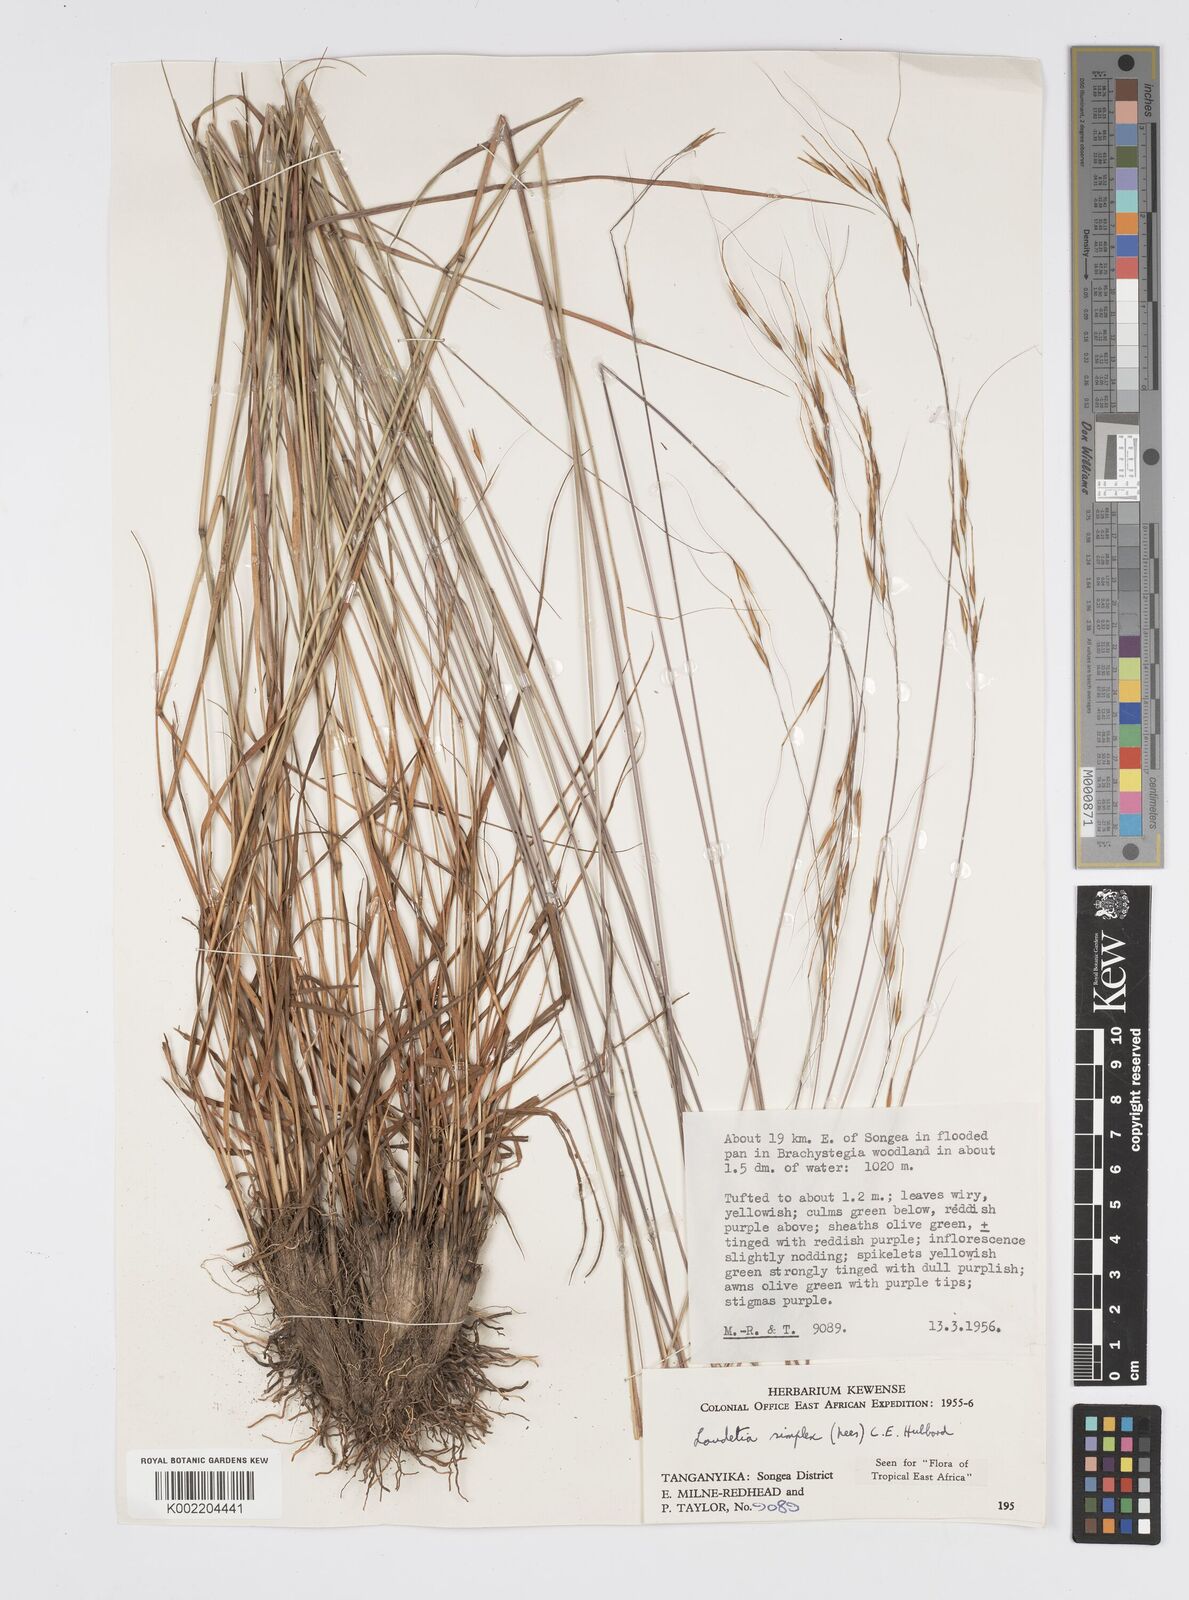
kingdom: Plantae
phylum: Tracheophyta
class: Liliopsida
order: Poales
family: Poaceae
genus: Loudetia
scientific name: Loudetia simplex
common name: Common russet grass
